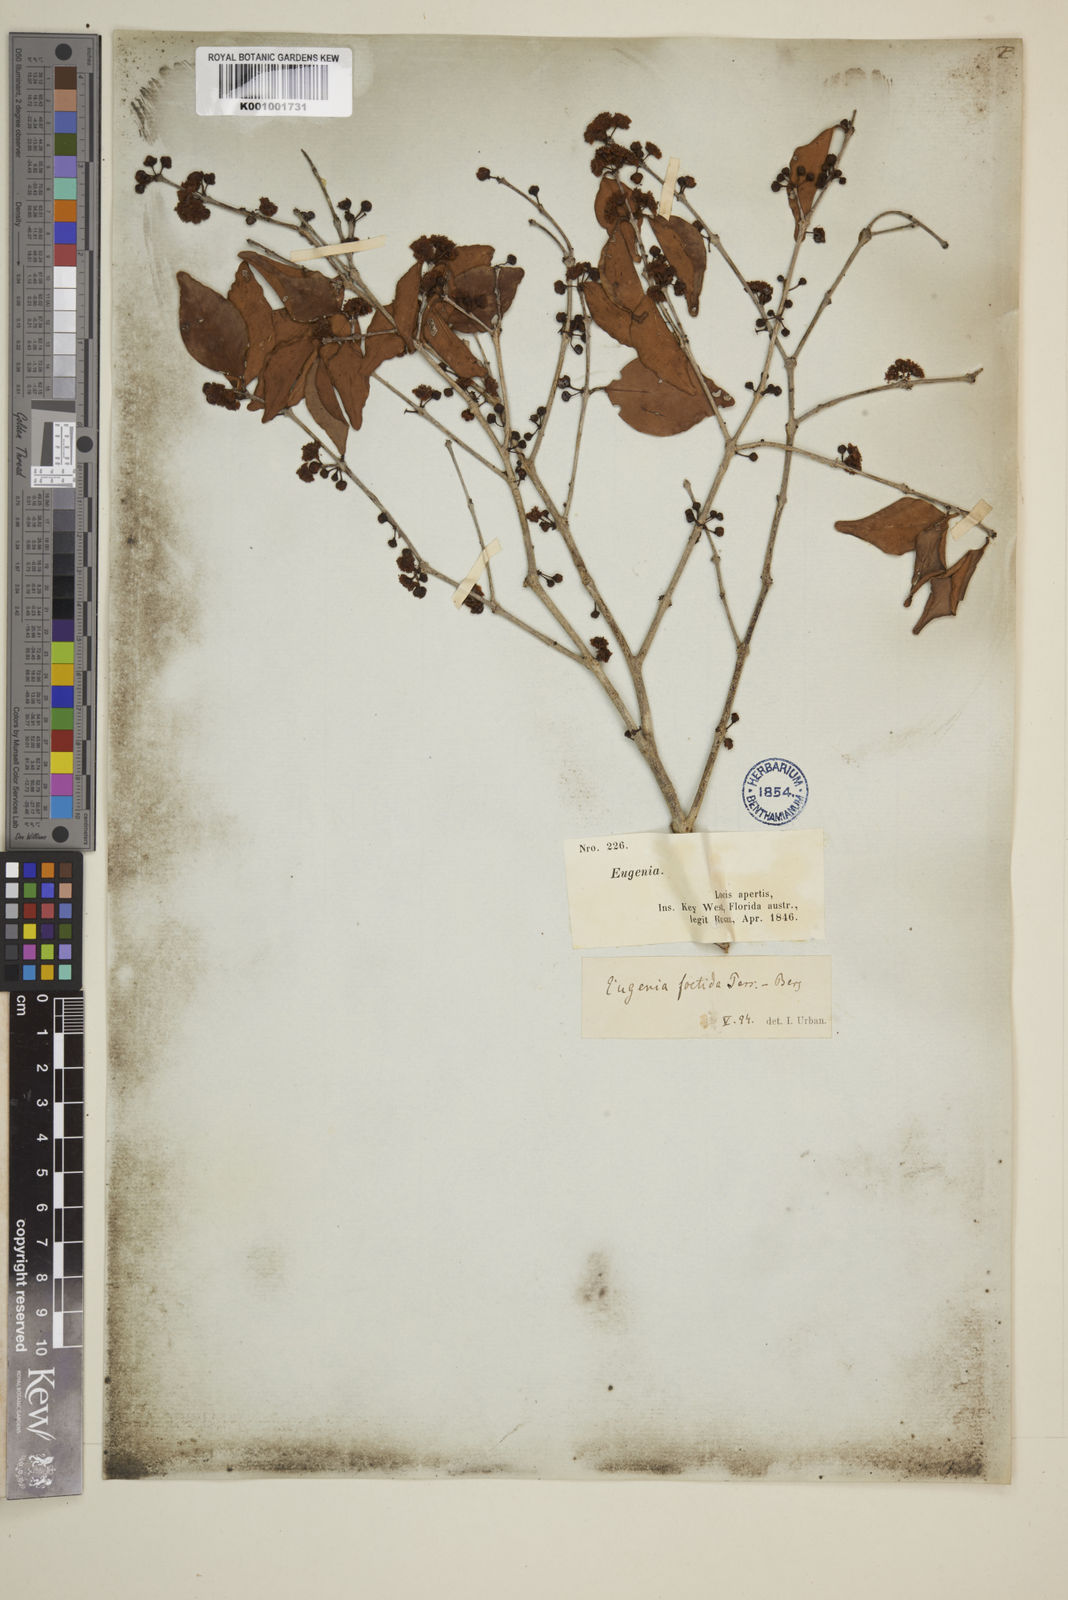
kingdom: Plantae
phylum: Tracheophyta
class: Magnoliopsida
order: Myrtales
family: Myrtaceae
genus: Eugenia
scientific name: Eugenia rhombea
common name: Pigeon berry
